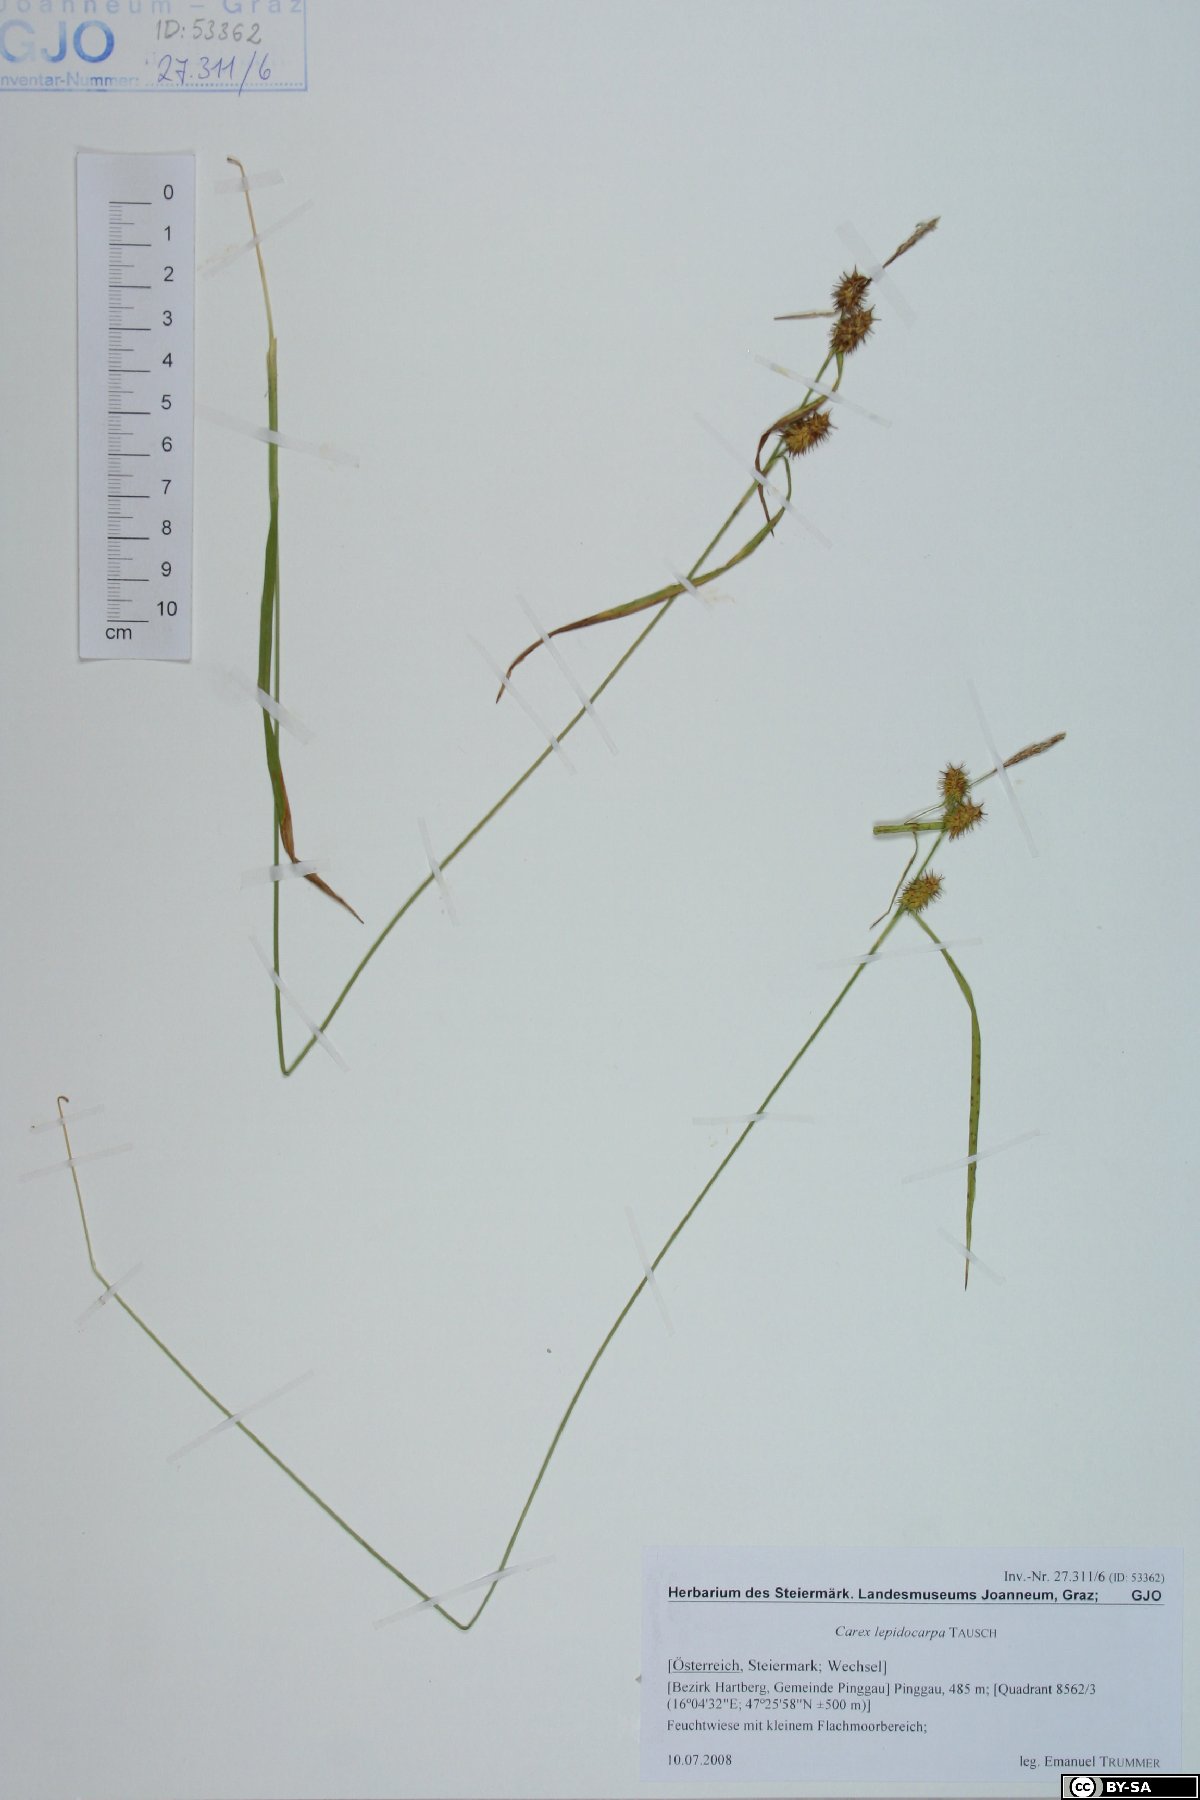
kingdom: Plantae
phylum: Tracheophyta
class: Liliopsida
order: Poales
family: Cyperaceae
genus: Carex
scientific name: Carex lepidocarpa
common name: Long-stalked yellow-sedge
